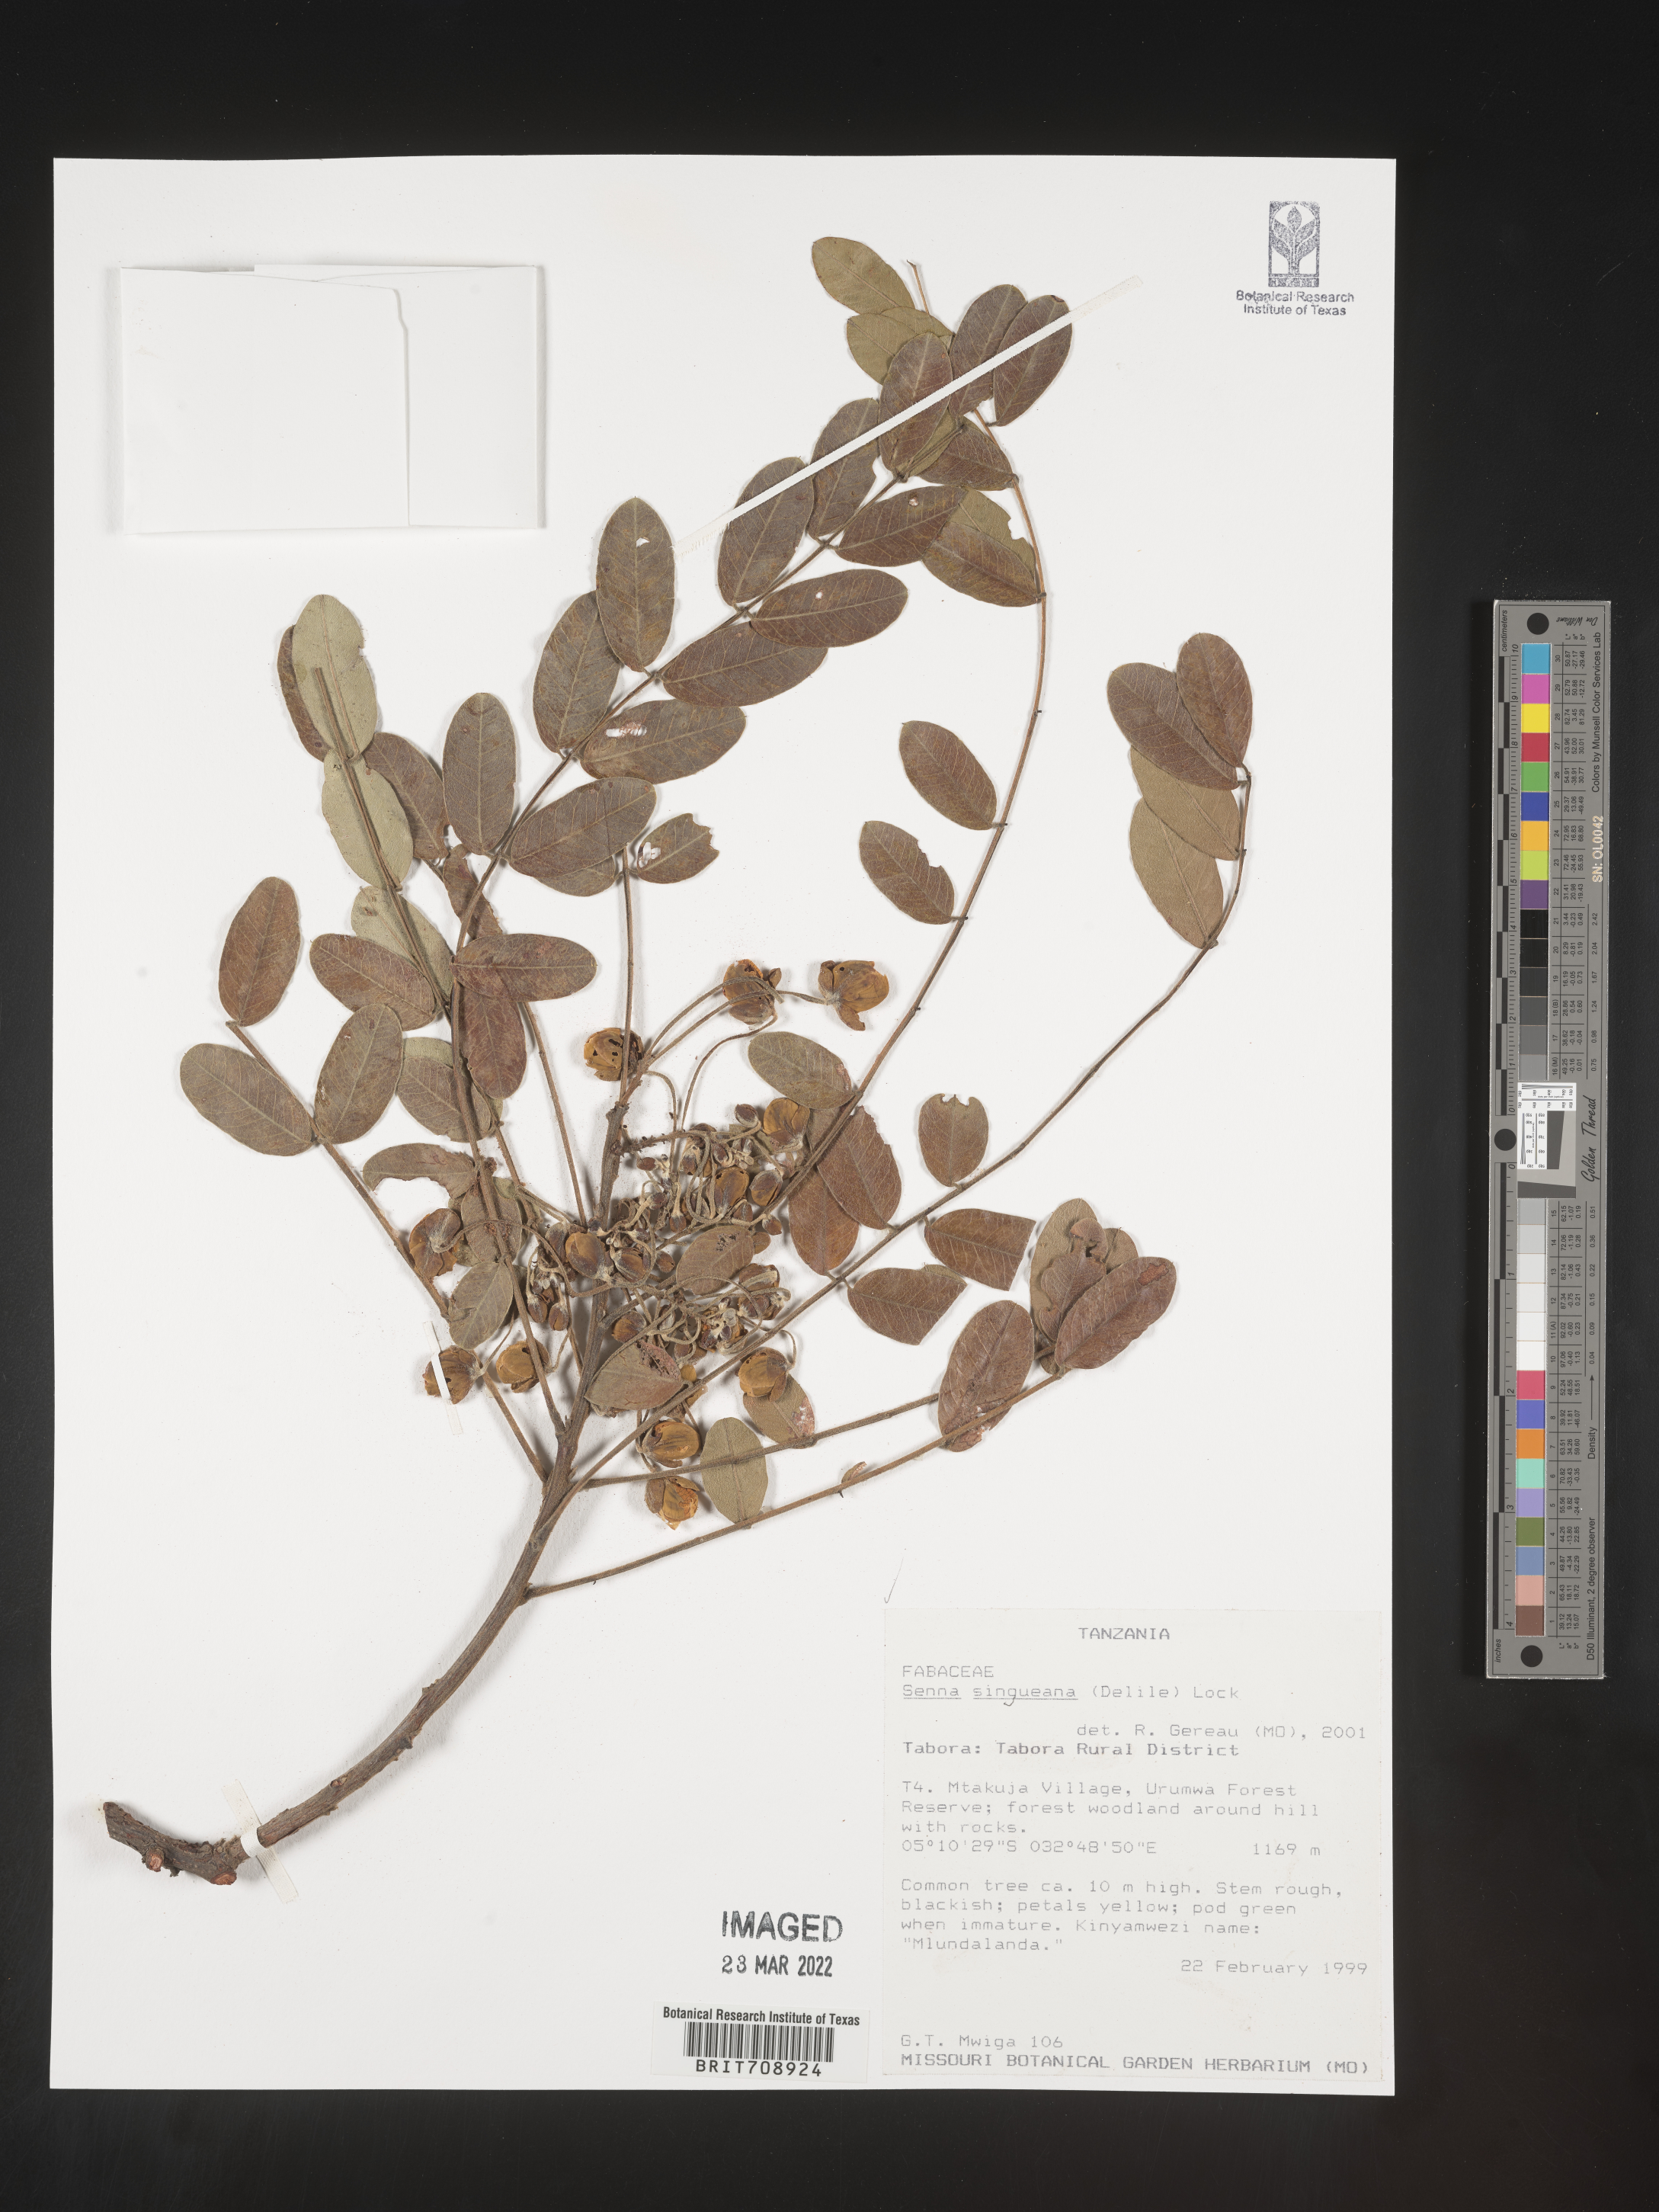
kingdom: Plantae
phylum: Tracheophyta
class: Magnoliopsida
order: Fabales
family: Fabaceae
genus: Senna
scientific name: Senna
